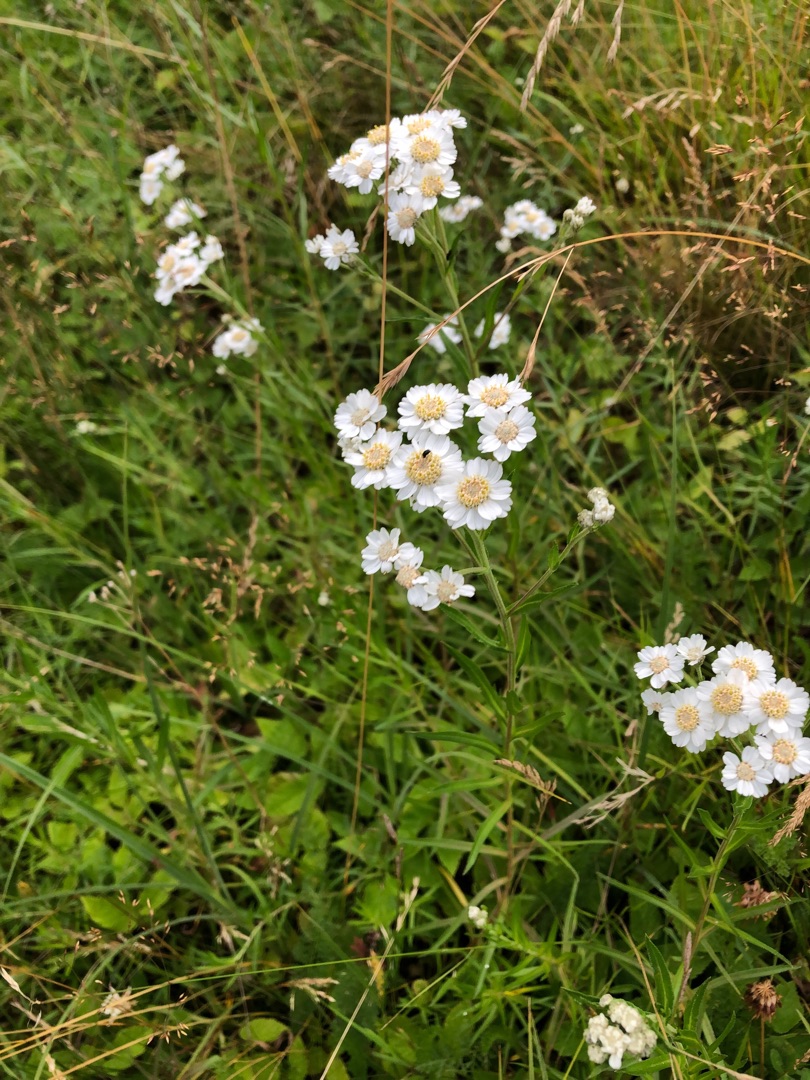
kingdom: Plantae
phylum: Tracheophyta
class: Magnoliopsida
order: Asterales
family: Asteraceae
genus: Achillea
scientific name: Achillea ptarmica
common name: Nyse-røllike
